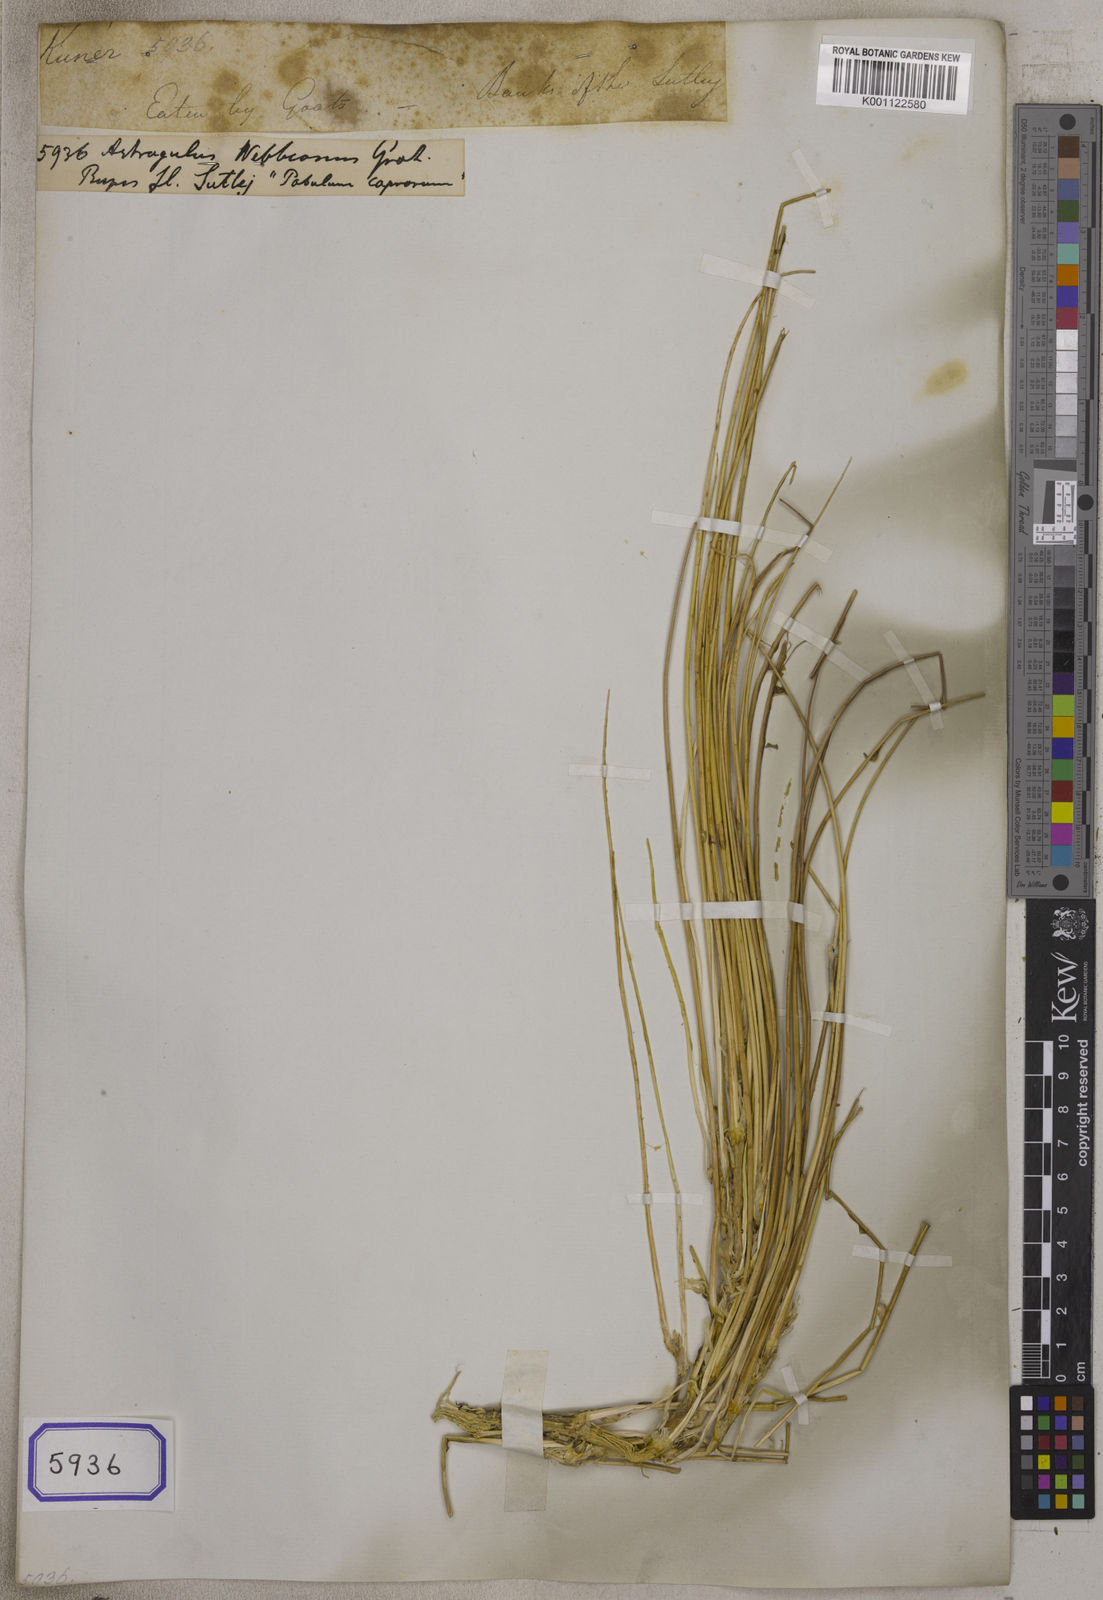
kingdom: Plantae
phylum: Tracheophyta
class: Magnoliopsida
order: Fabales
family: Fabaceae
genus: Astragalus
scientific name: Astragalus
